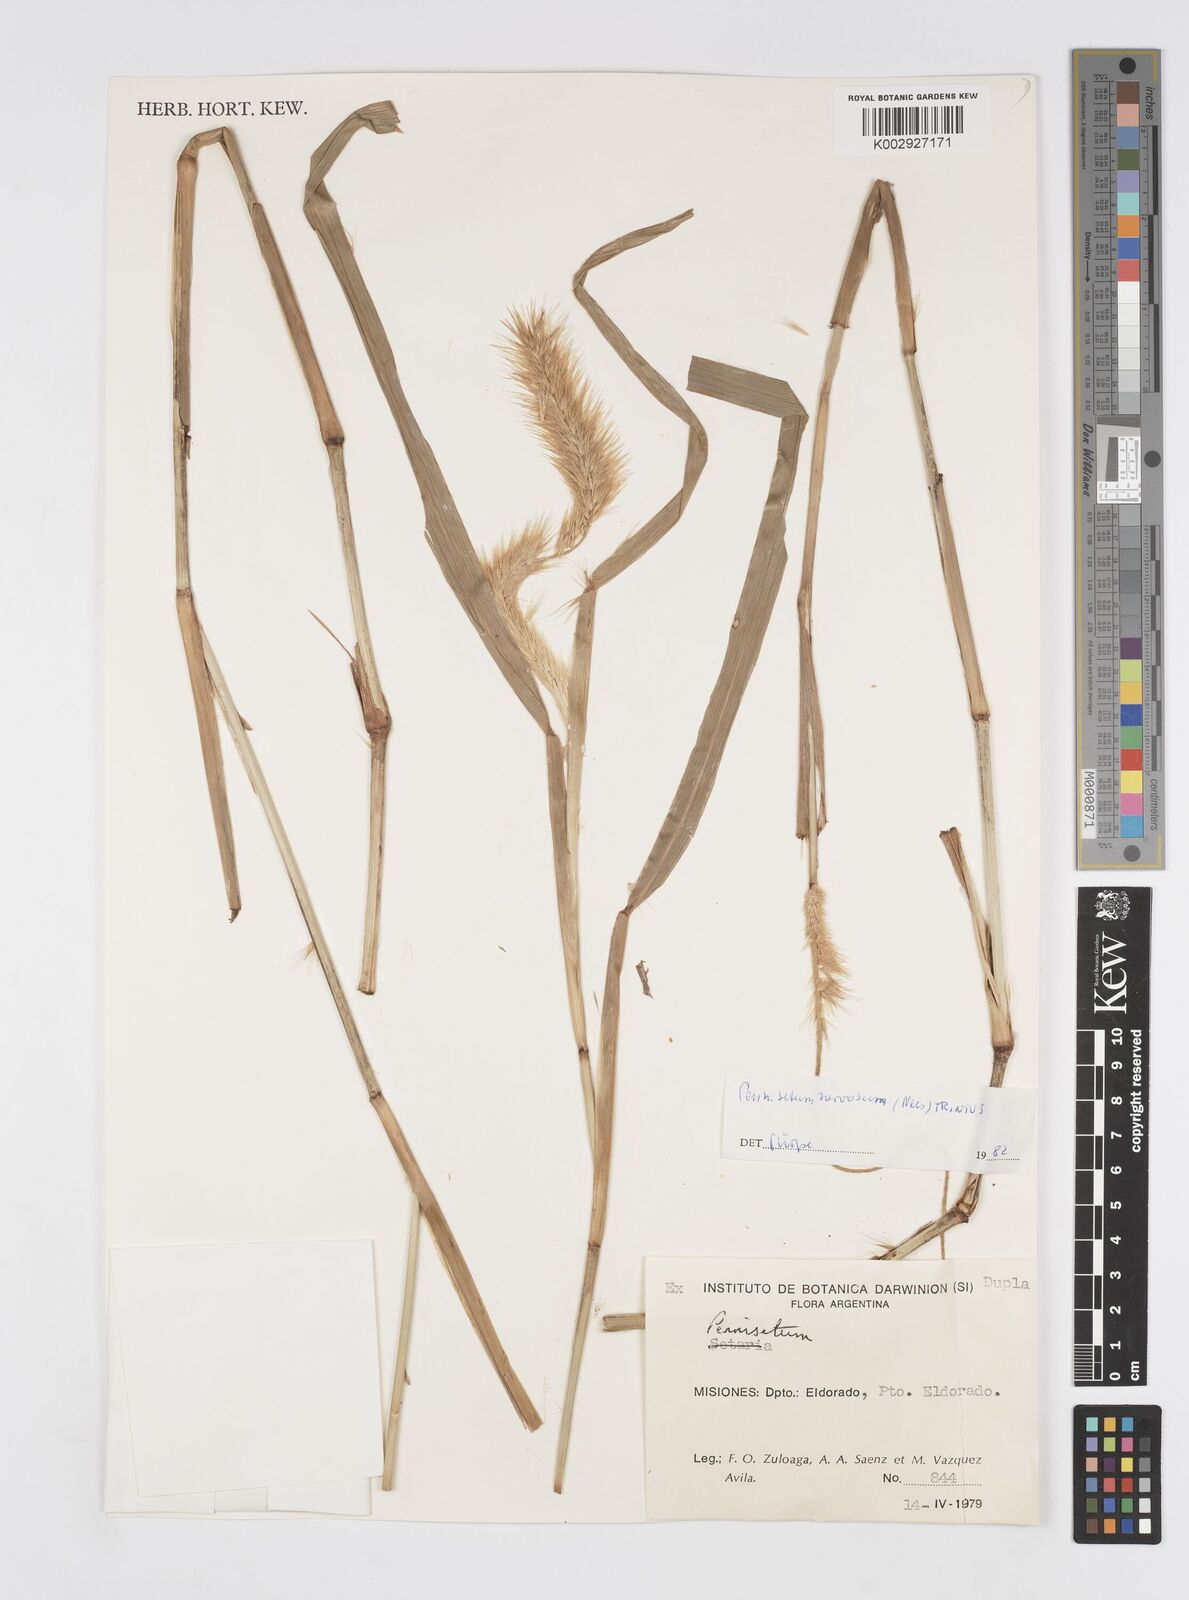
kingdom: Plantae
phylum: Tracheophyta
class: Liliopsida
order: Poales
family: Poaceae
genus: Cenchrus
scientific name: Cenchrus latifolius
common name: Sandbur
